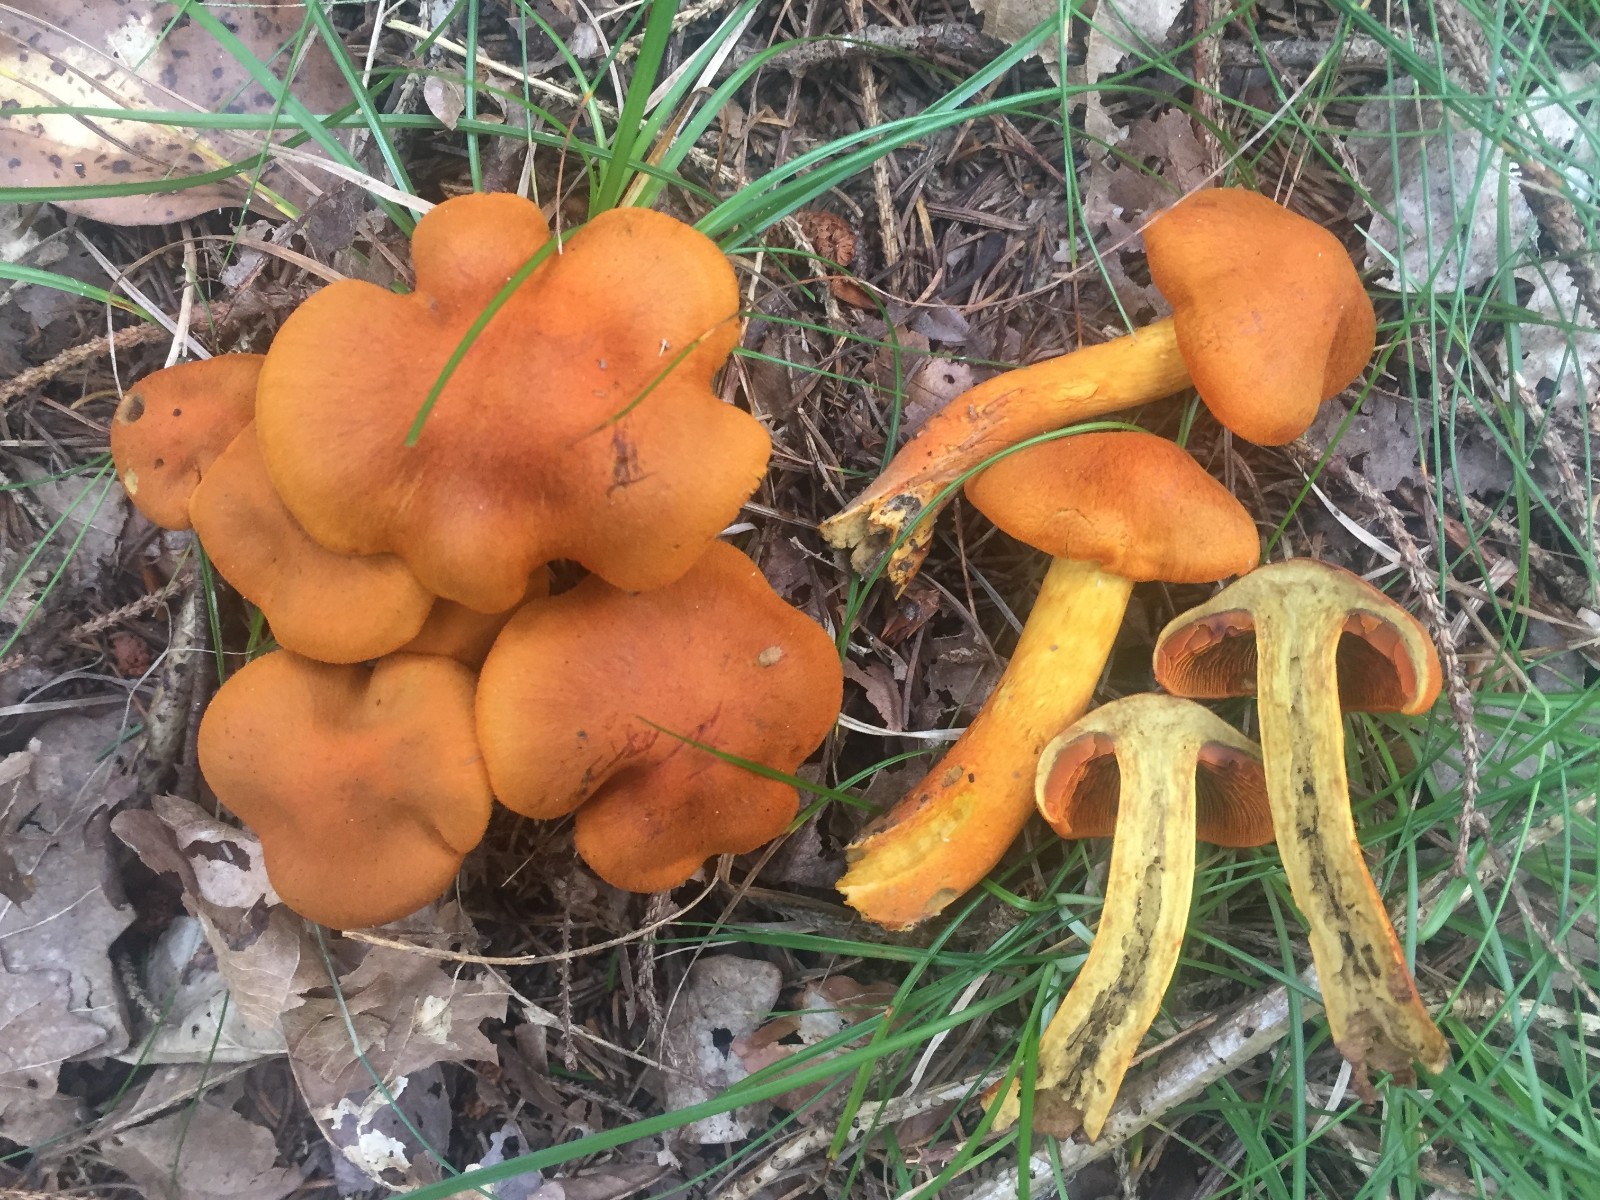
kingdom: Fungi
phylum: Basidiomycota
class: Agaricomycetes
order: Agaricales
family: Cortinariaceae
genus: Cortinarius
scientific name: Cortinarius malicorius
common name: grønkødet slørhat
